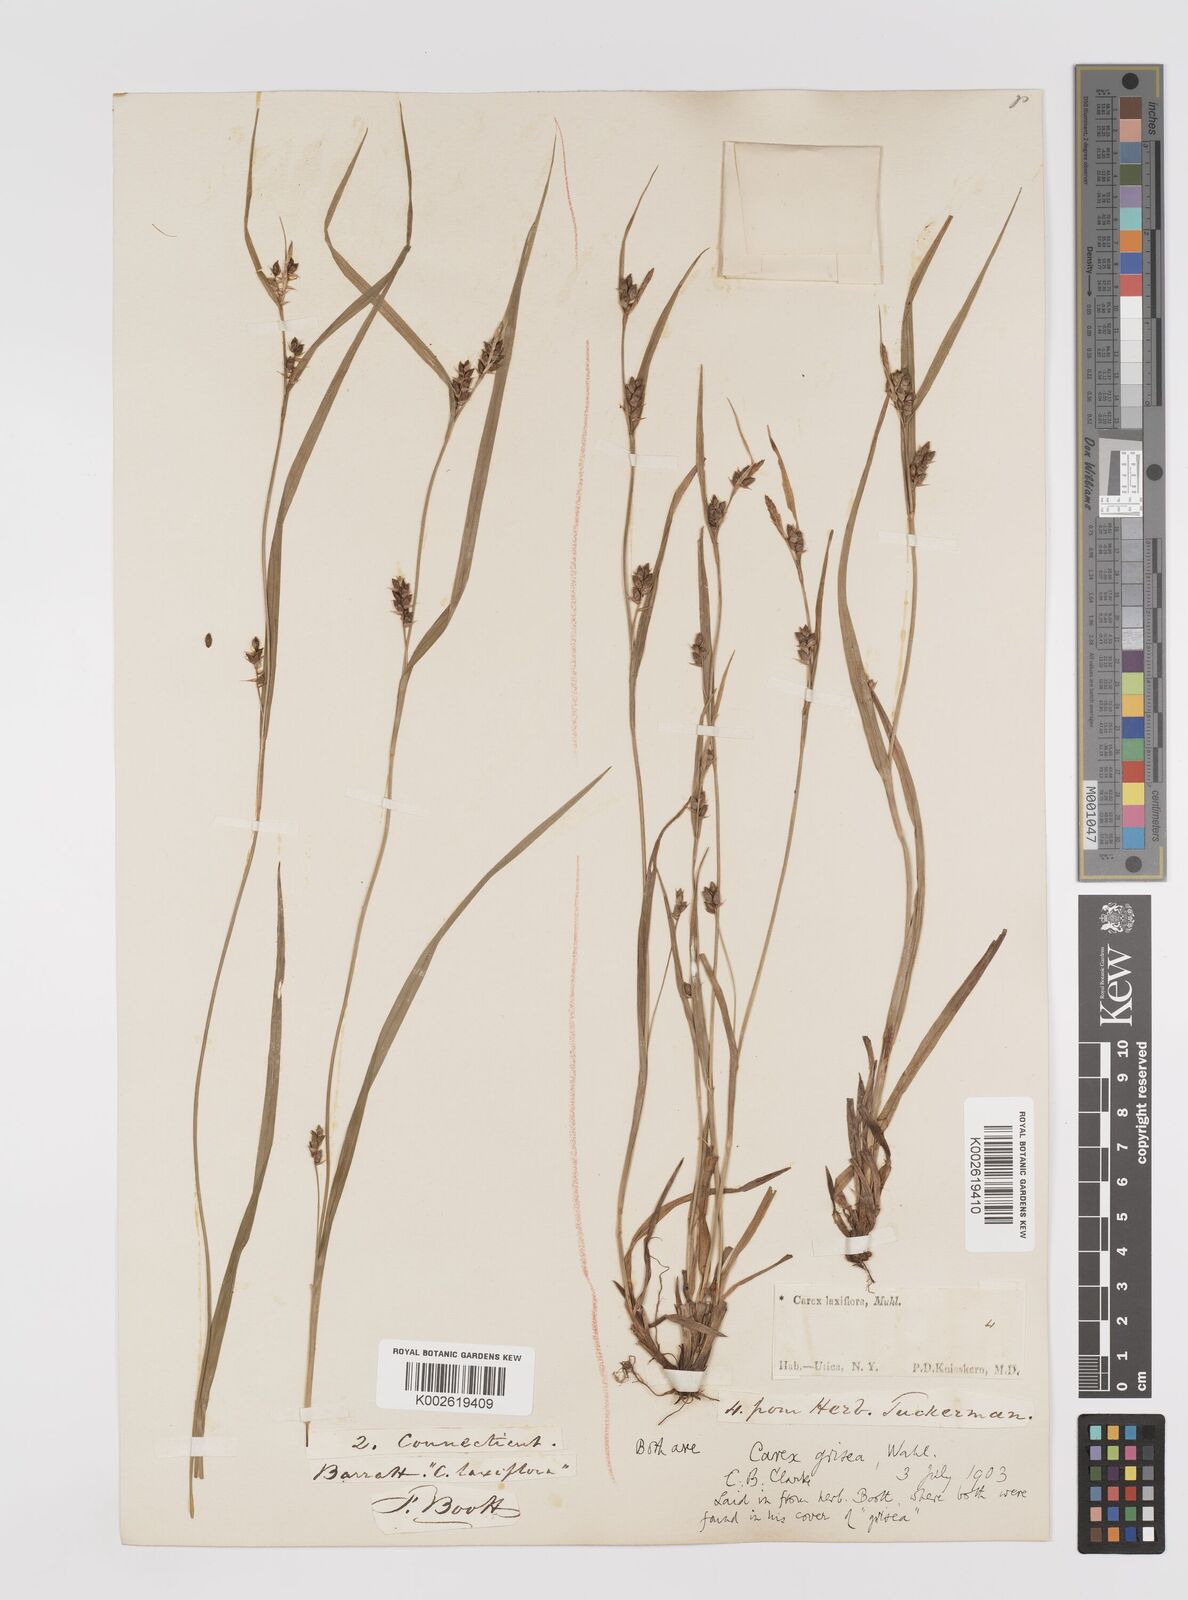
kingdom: Plantae
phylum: Tracheophyta
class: Liliopsida
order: Poales
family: Cyperaceae
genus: Carex
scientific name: Carex grisea
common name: Eastern narrow-leaved sedge
